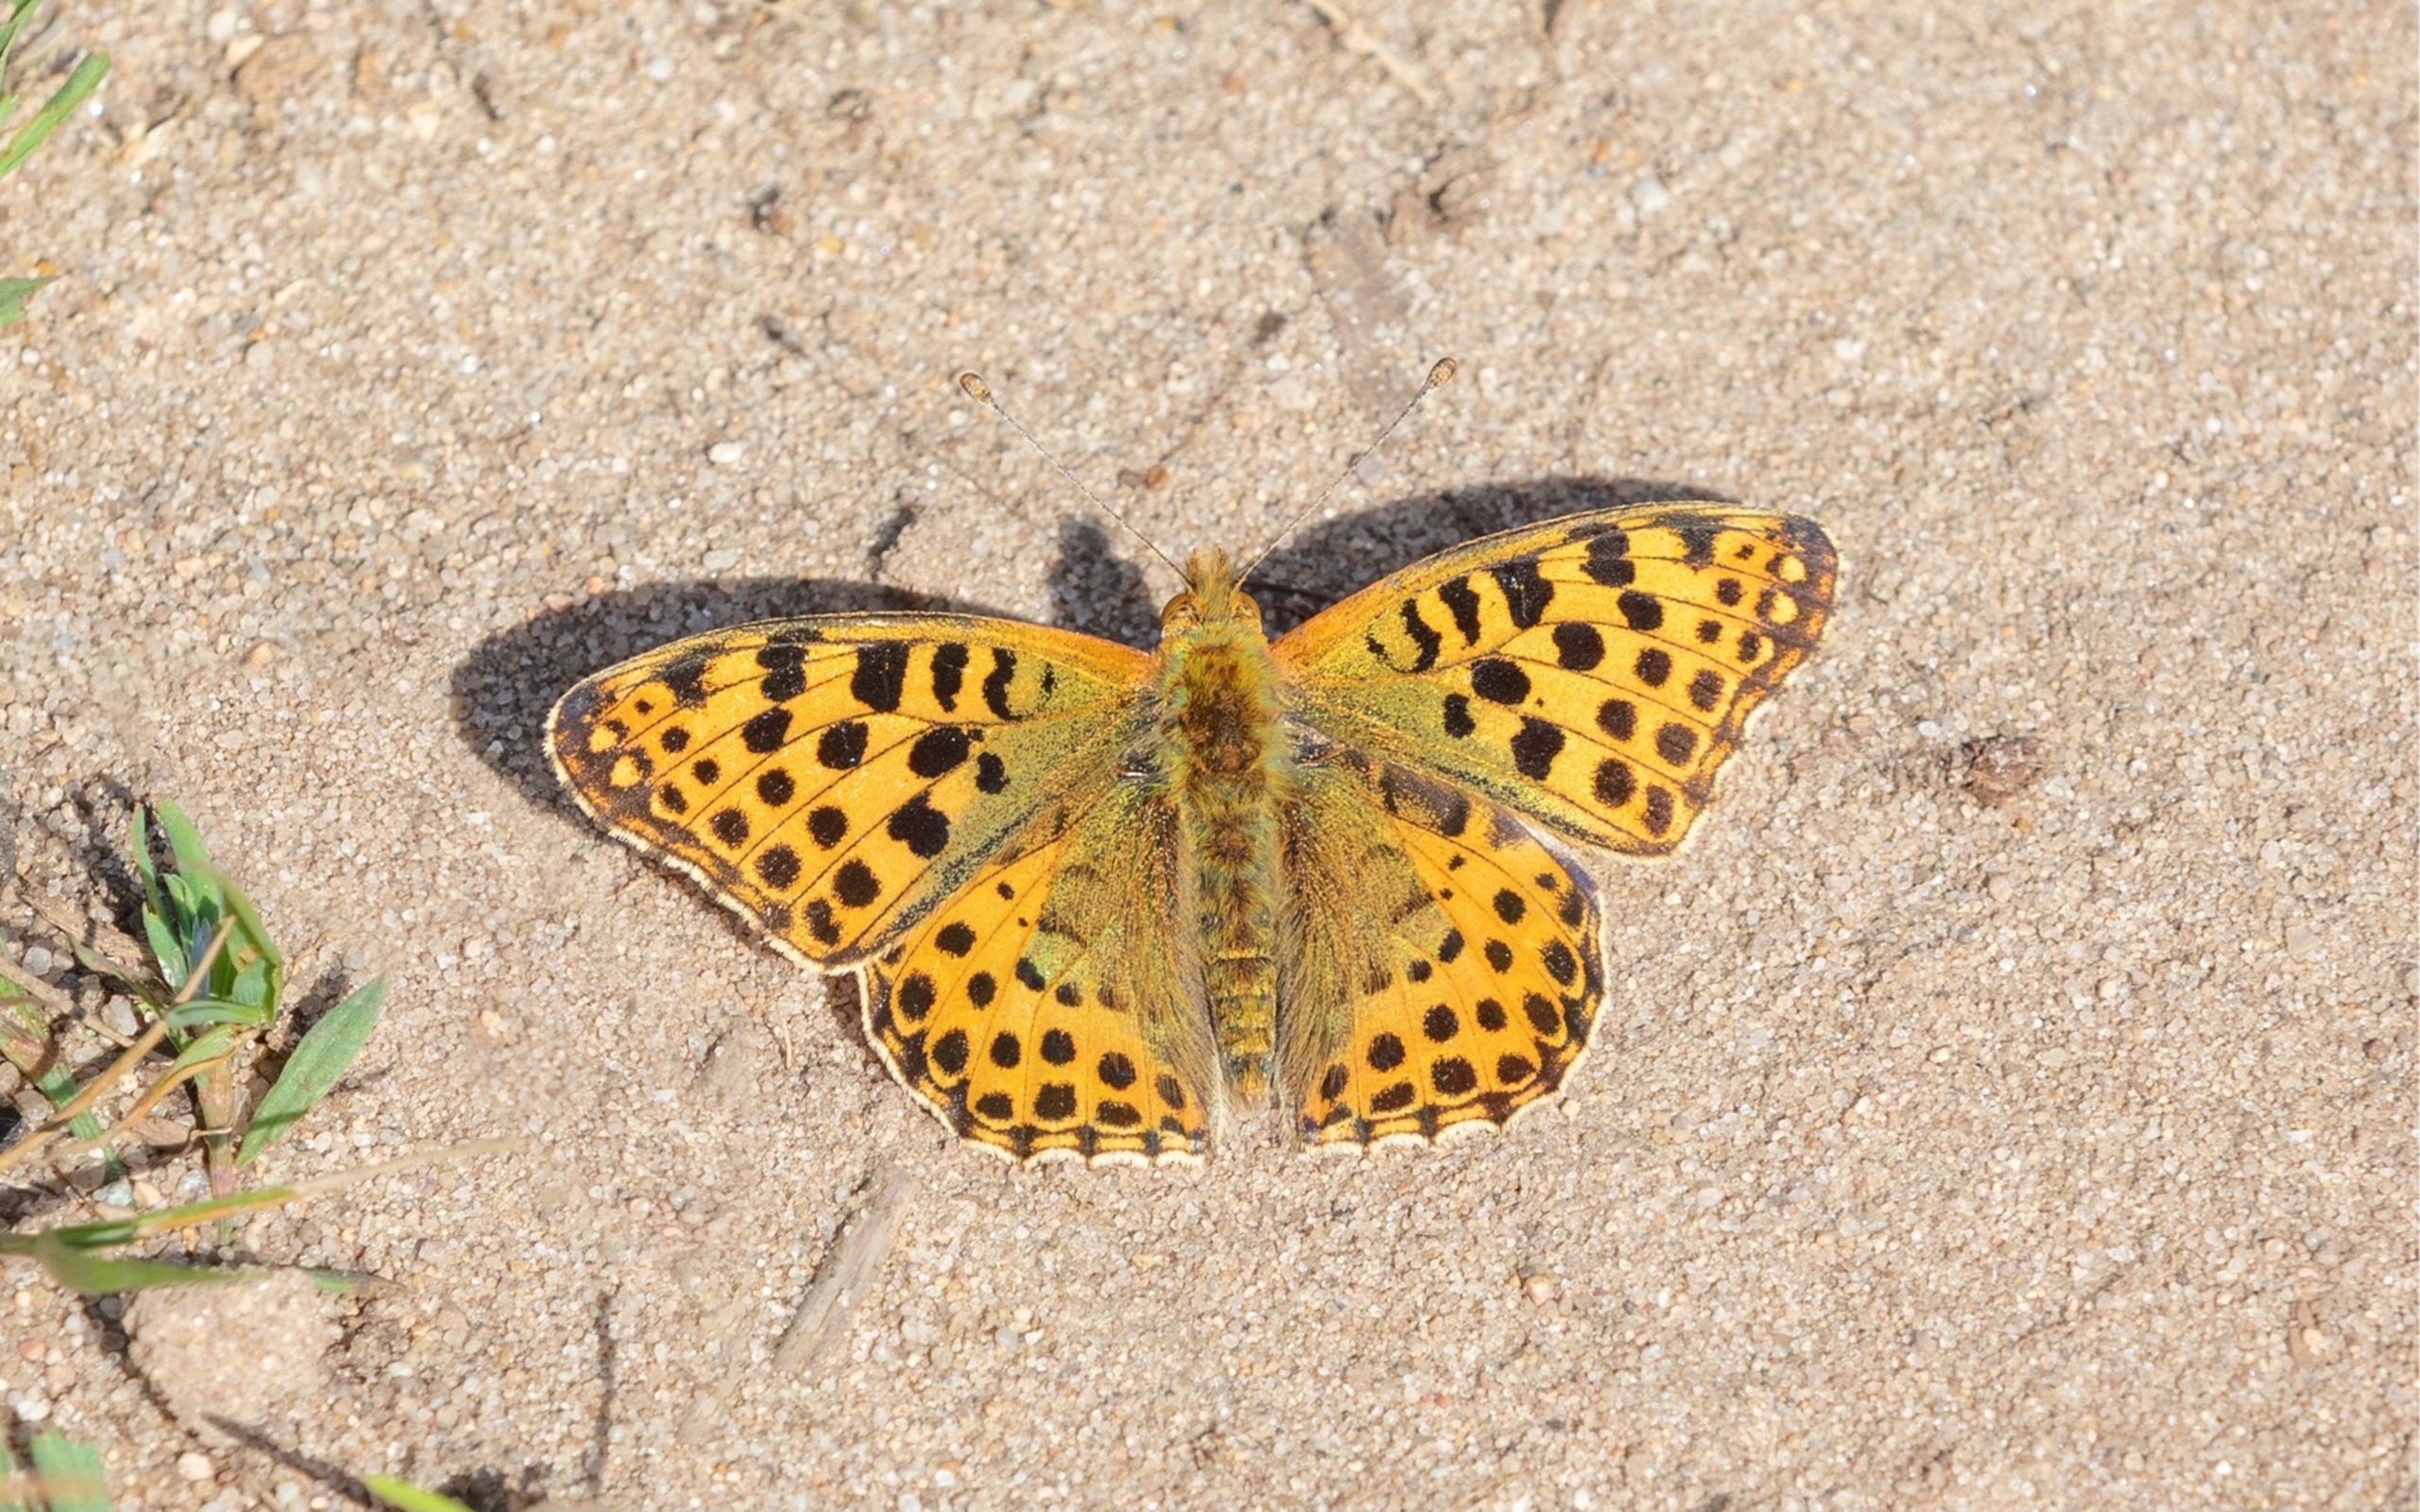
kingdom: Animalia
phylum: Arthropoda
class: Insecta
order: Lepidoptera
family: Nymphalidae
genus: Issoria
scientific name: Issoria lathonia
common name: Storplettet perlemorsommerfugl
